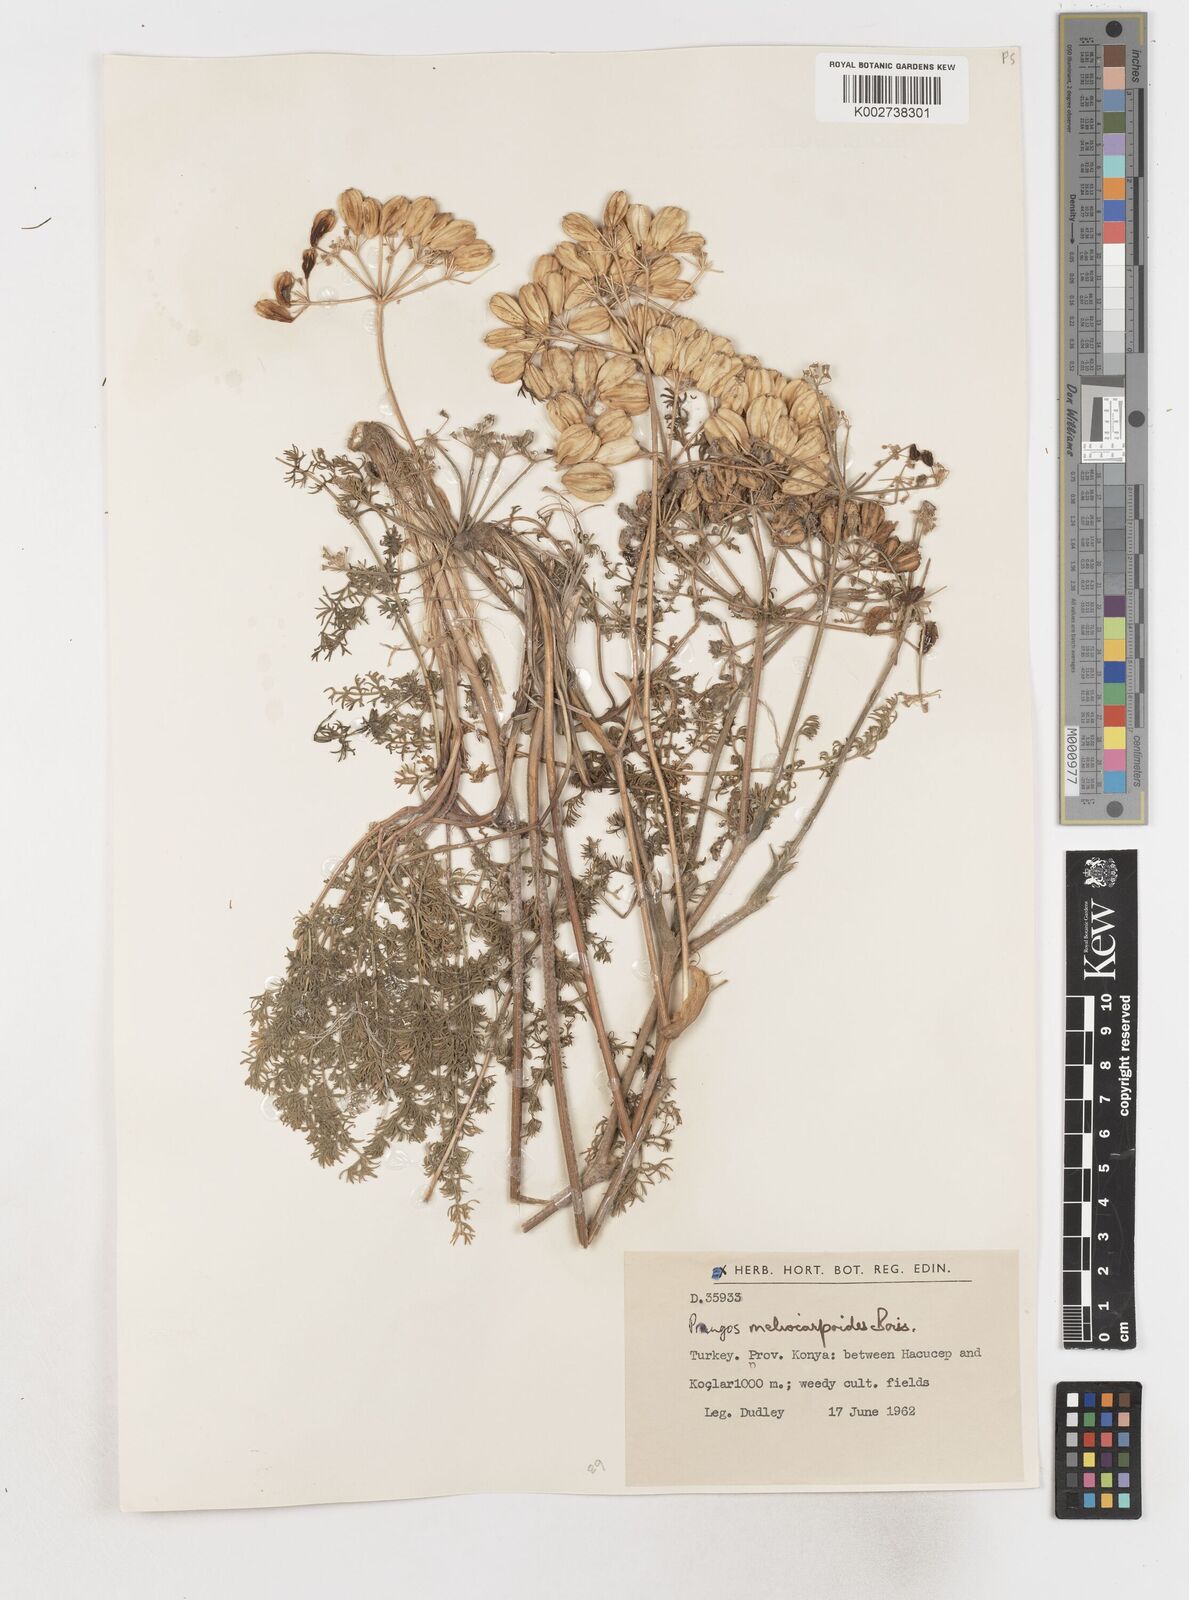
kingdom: Plantae
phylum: Tracheophyta
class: Magnoliopsida
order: Apiales
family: Apiaceae
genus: Prangos
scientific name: Prangos
